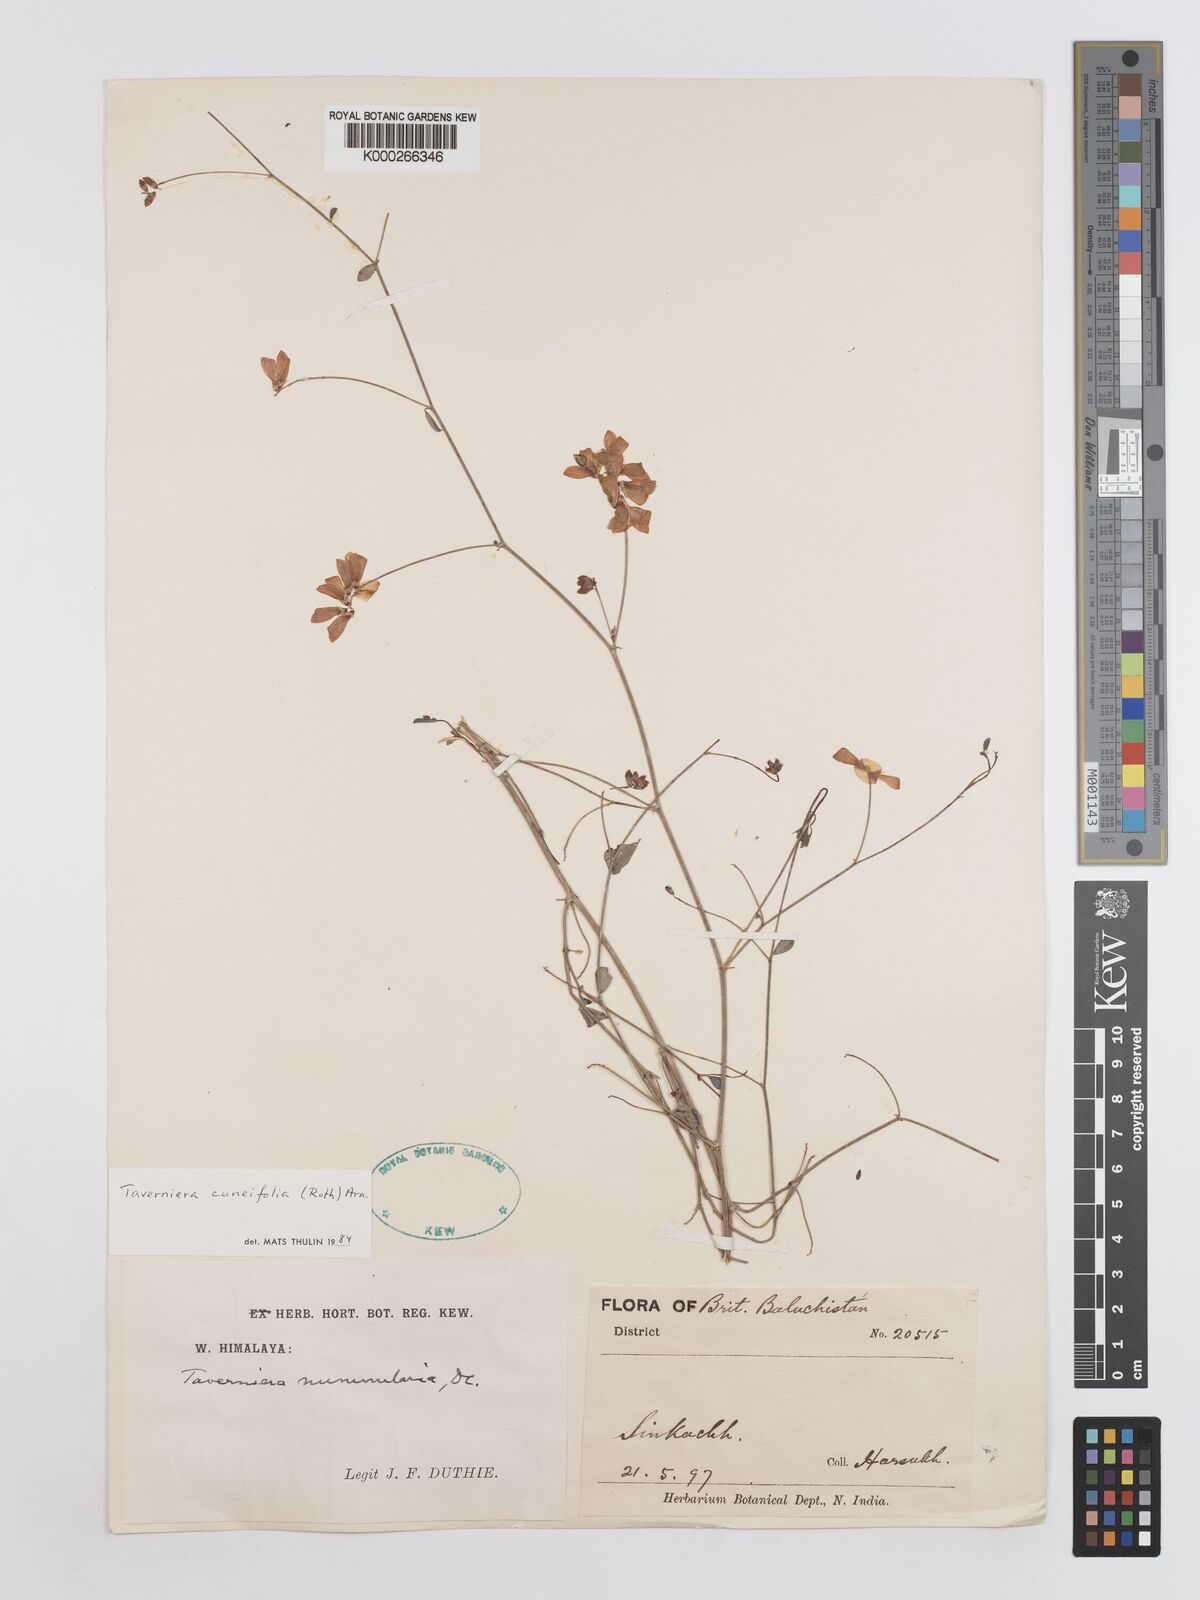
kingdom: Plantae
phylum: Tracheophyta
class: Magnoliopsida
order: Fabales
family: Fabaceae
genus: Taverniera
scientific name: Taverniera cuneifolia
